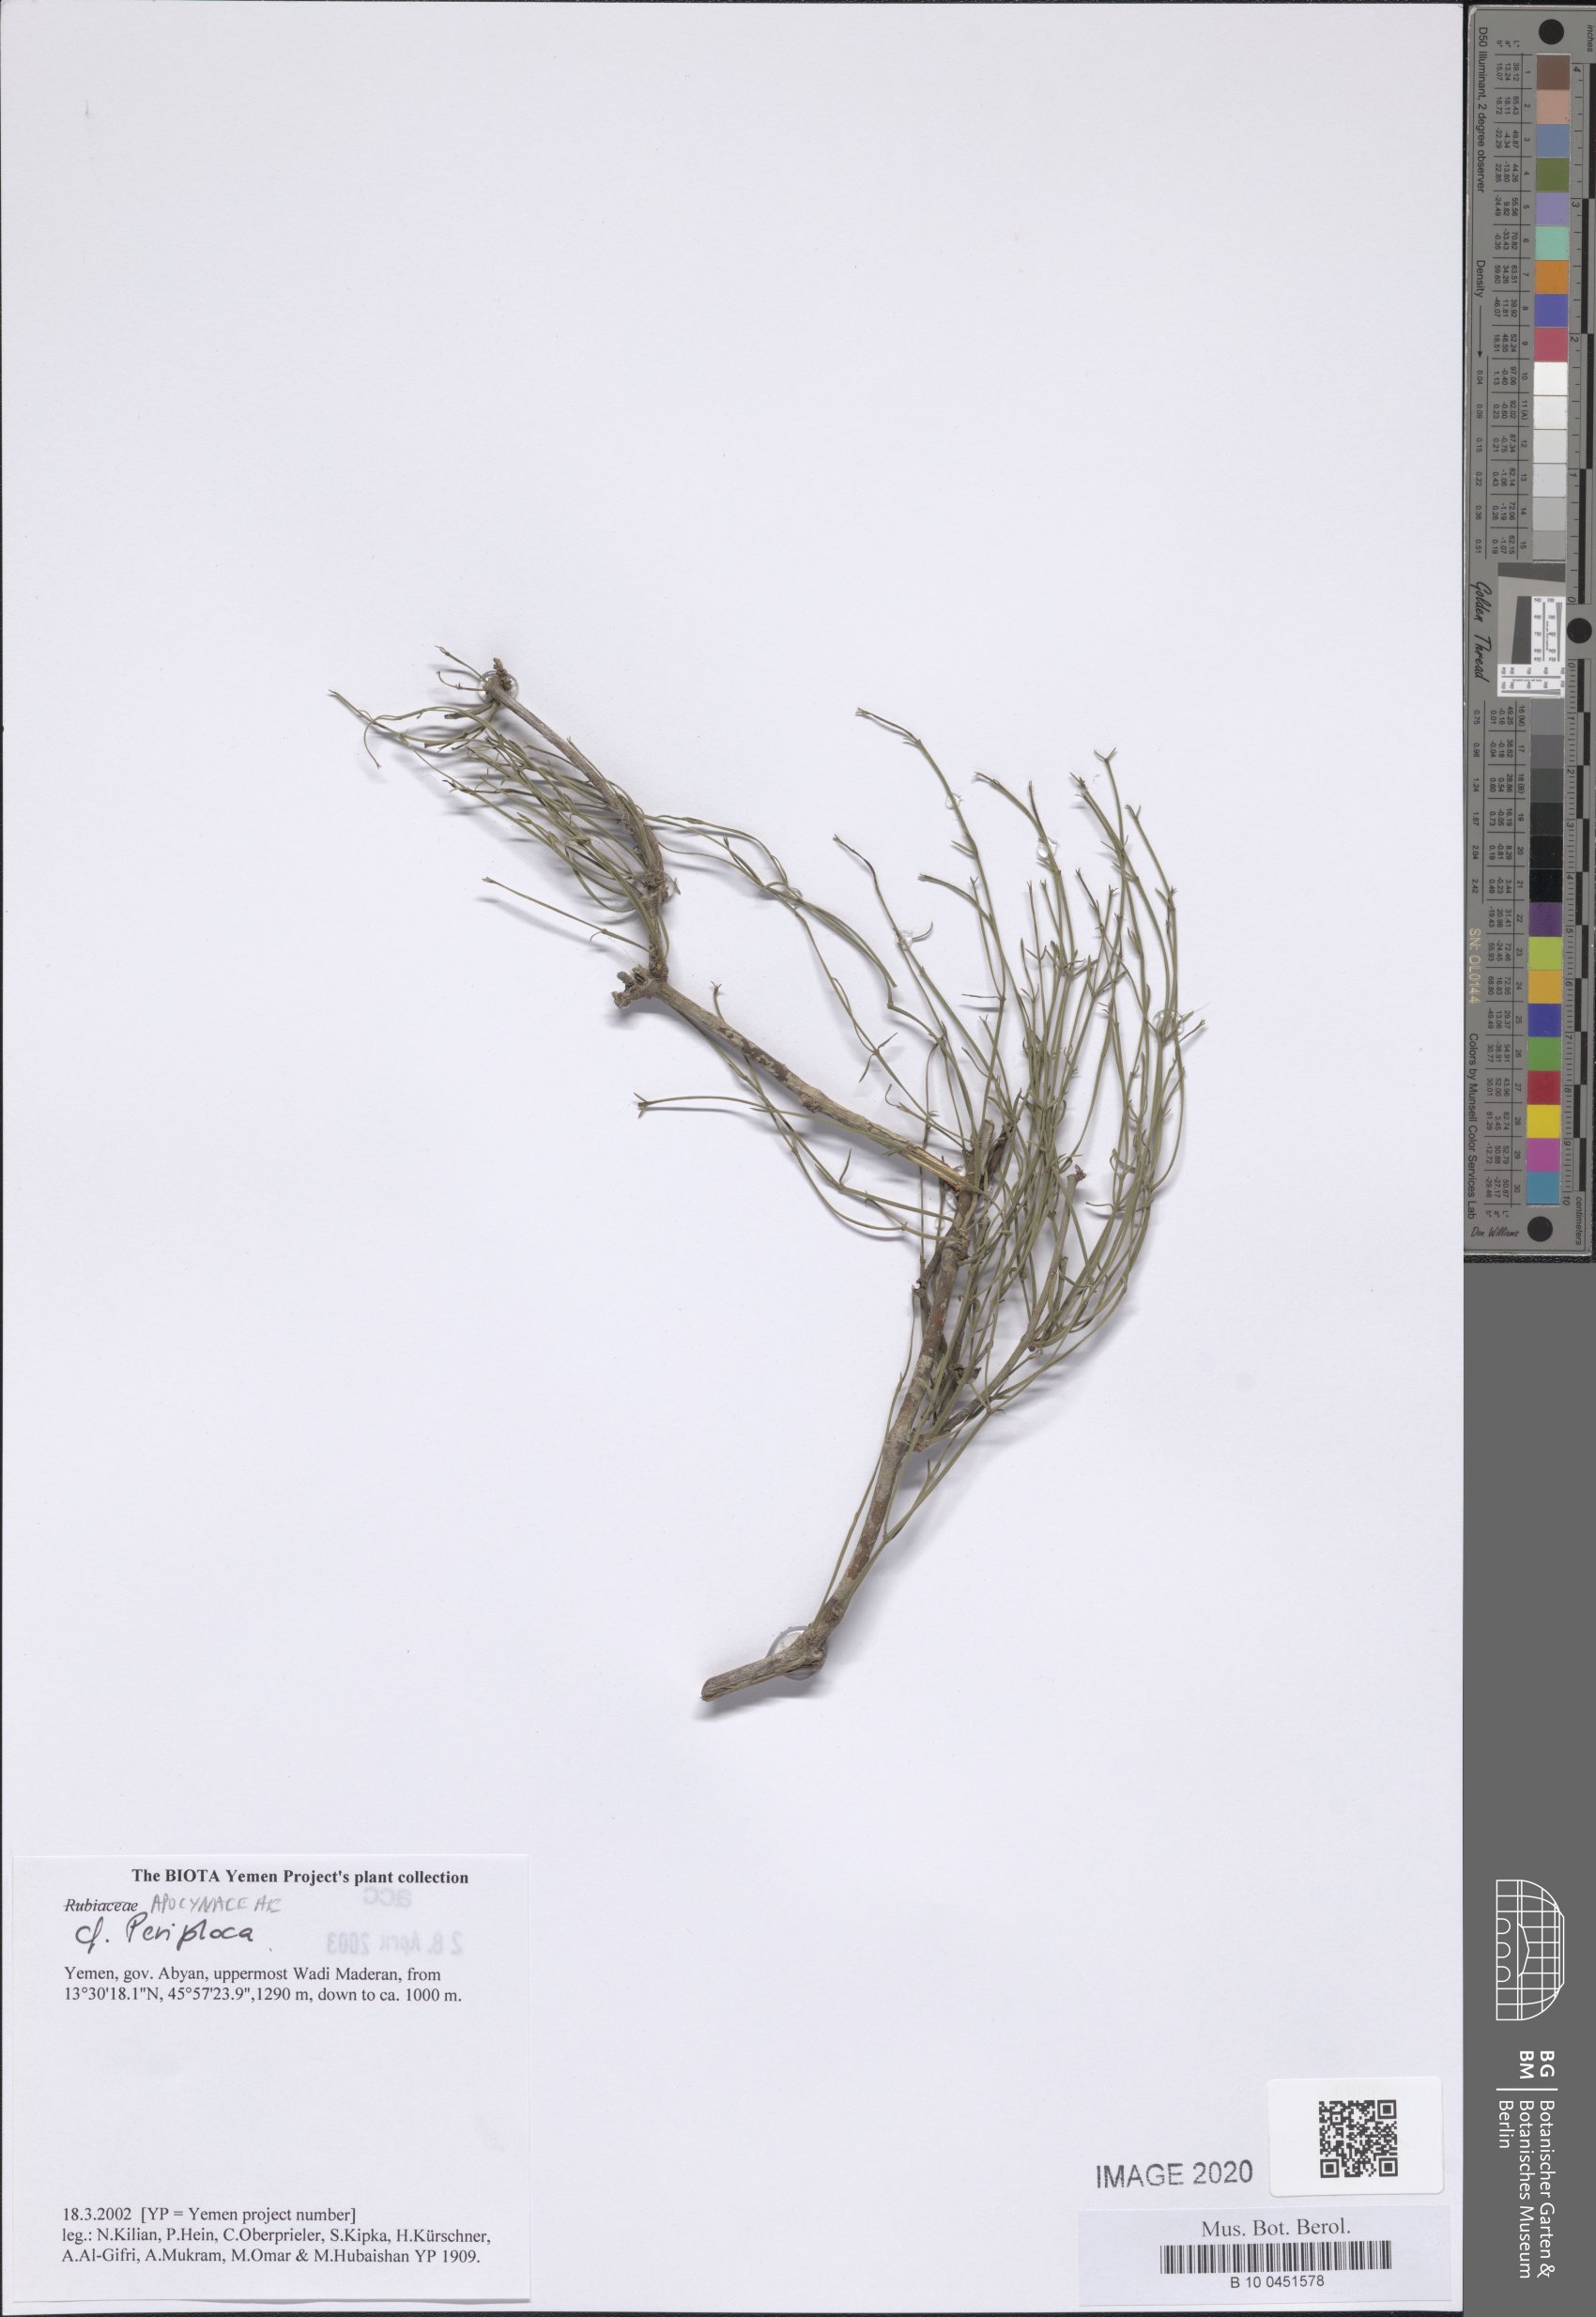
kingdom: Plantae
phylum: Tracheophyta
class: Magnoliopsida
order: Gentianales
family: Apocynaceae
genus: Periploca
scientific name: Periploca visciformis
